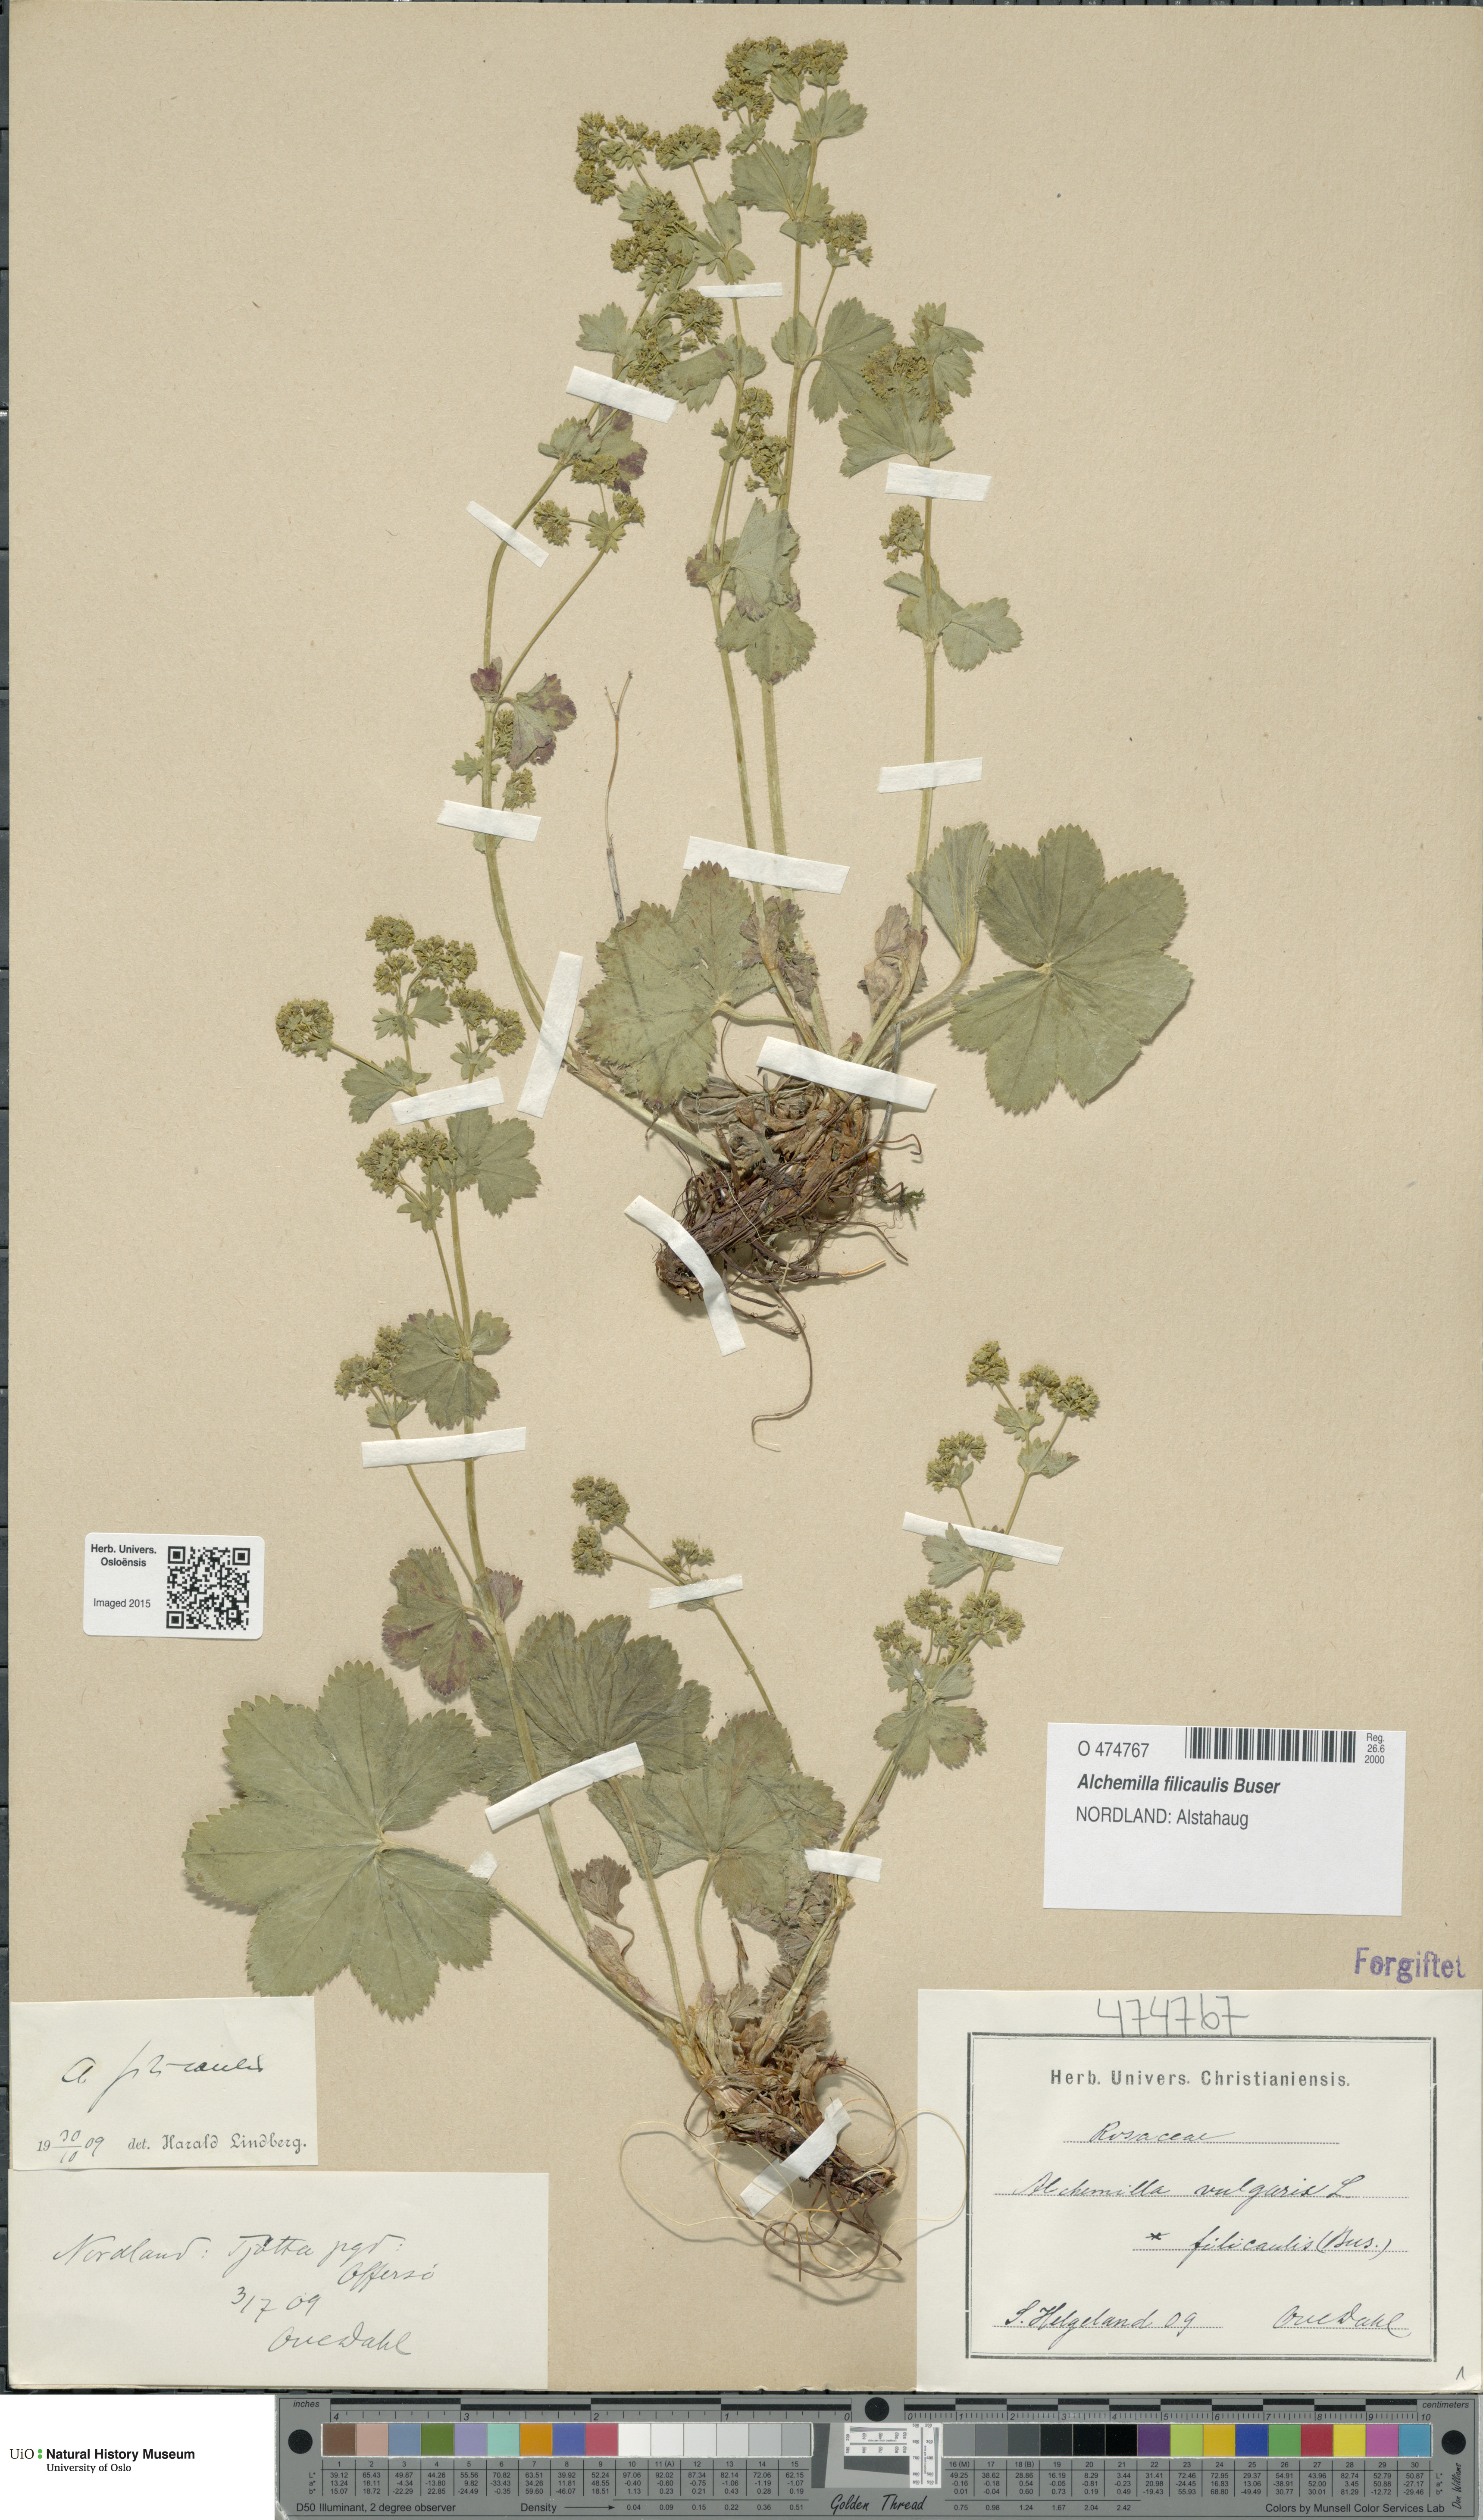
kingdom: Plantae
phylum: Tracheophyta
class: Magnoliopsida
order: Rosales
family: Rosaceae
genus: Alchemilla
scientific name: Alchemilla filicaulis
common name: Hairy lady's-mantle
